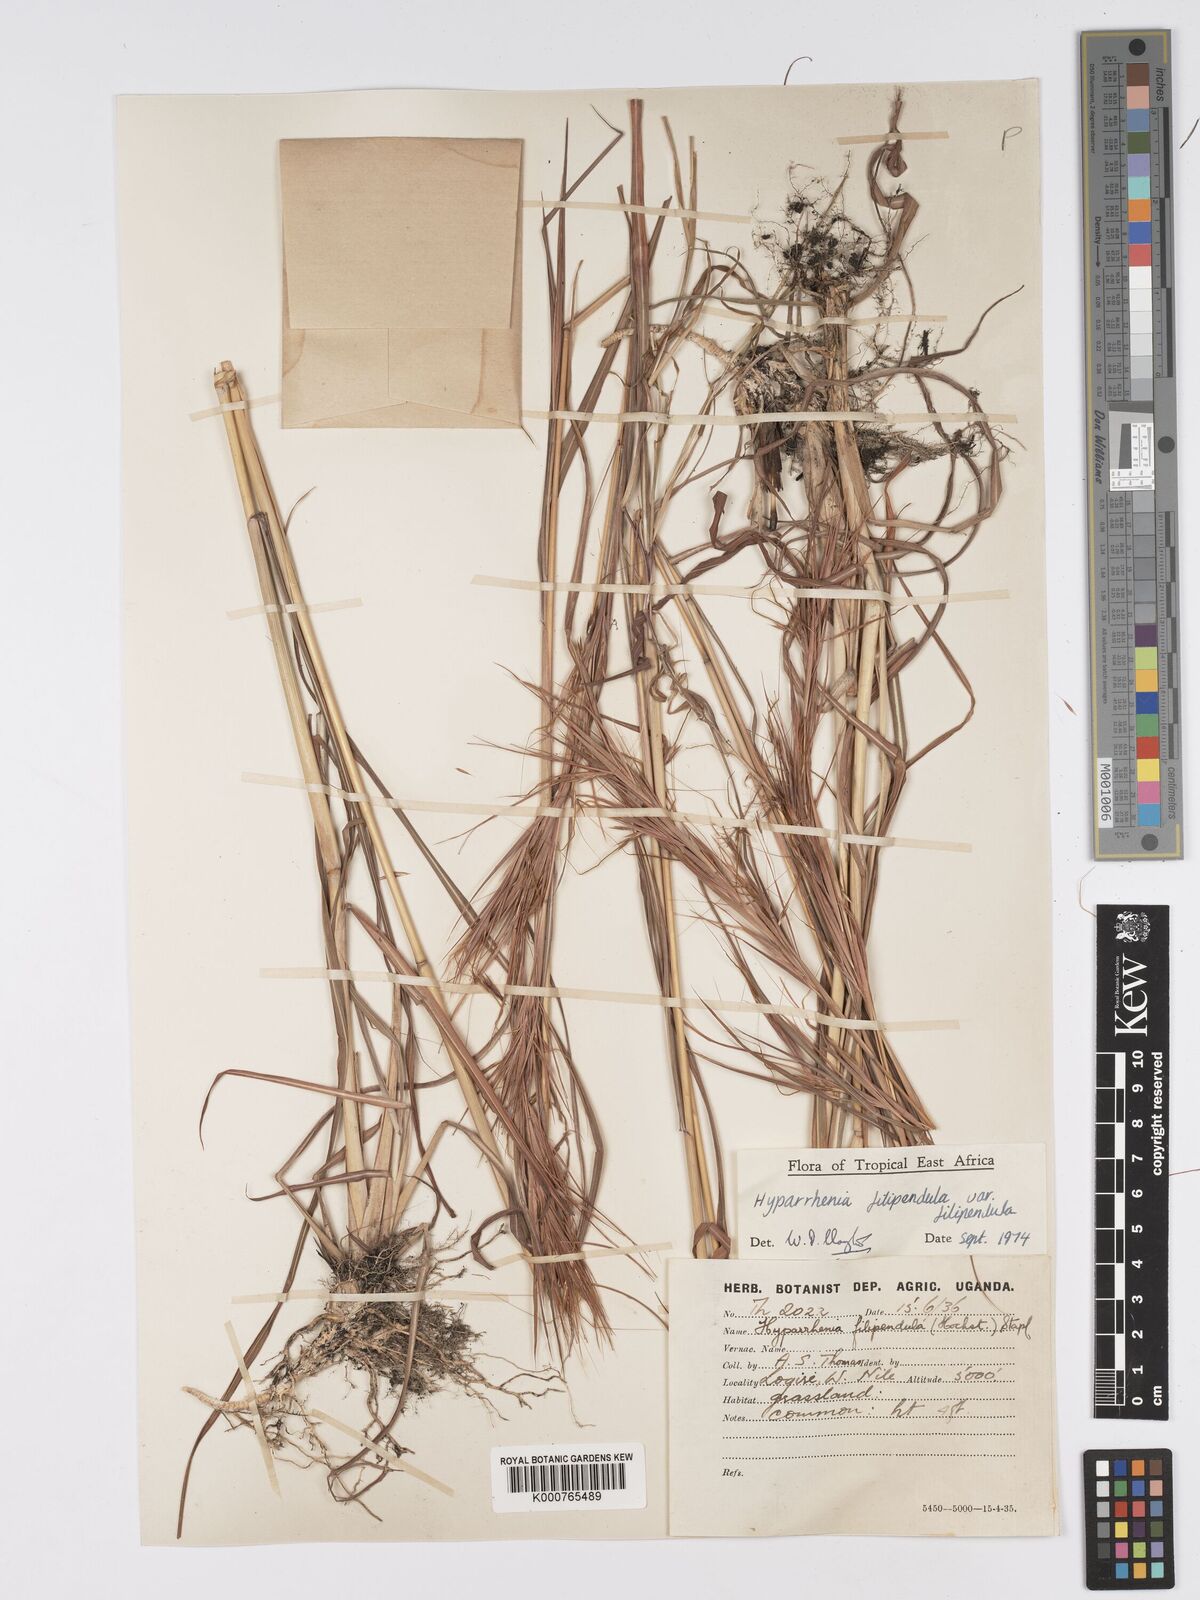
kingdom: Plantae
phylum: Tracheophyta
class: Liliopsida
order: Poales
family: Poaceae
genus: Hyparrhenia
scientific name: Hyparrhenia filipendula
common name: Tambookie grass
